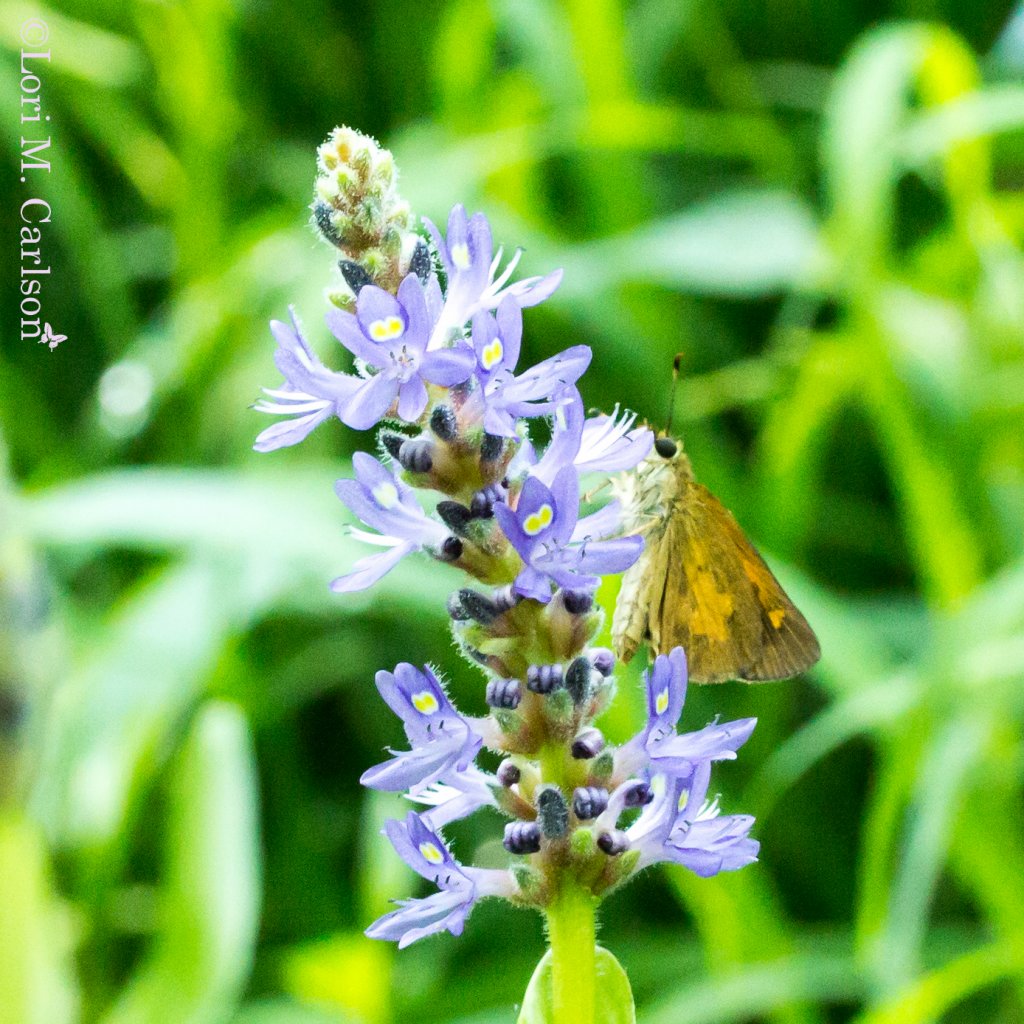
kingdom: Animalia
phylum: Arthropoda
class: Insecta
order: Lepidoptera
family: Hesperiidae
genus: Poanes
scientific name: Poanes viator
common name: Broad-winged Skipper
